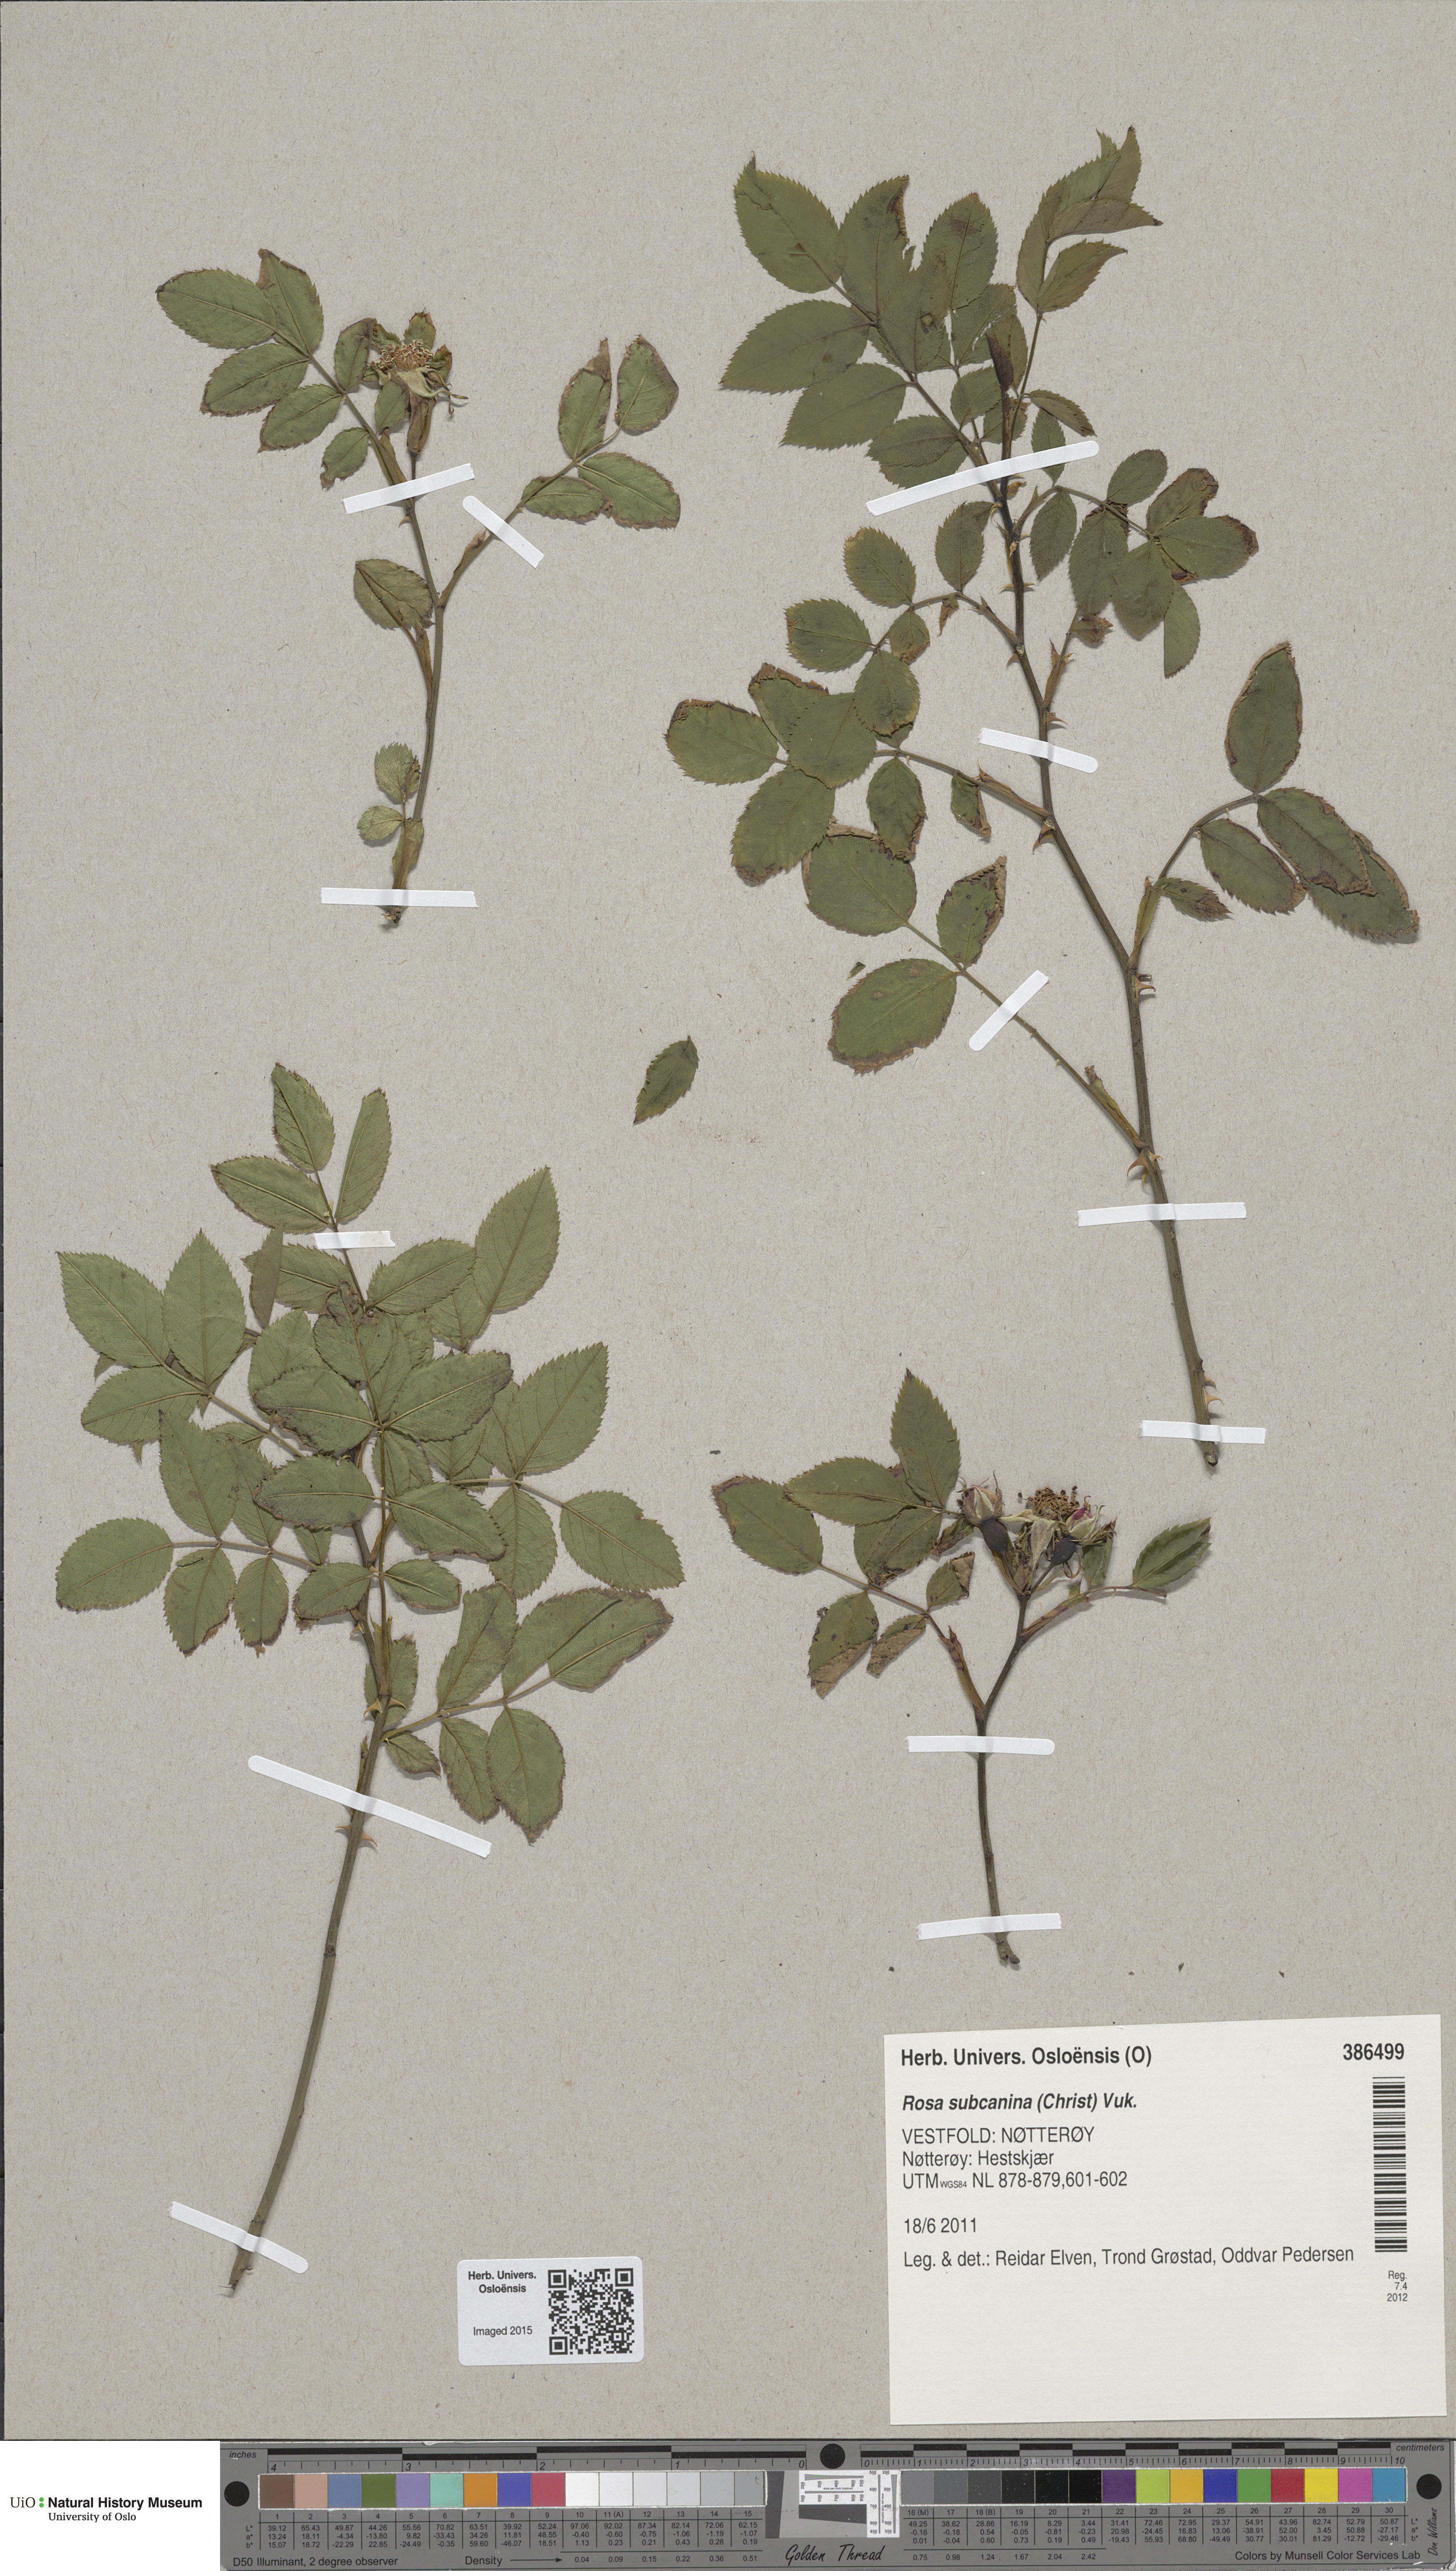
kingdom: Plantae
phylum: Tracheophyta
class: Magnoliopsida
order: Rosales
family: Rosaceae
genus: Rosa
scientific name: Rosa subcanina
